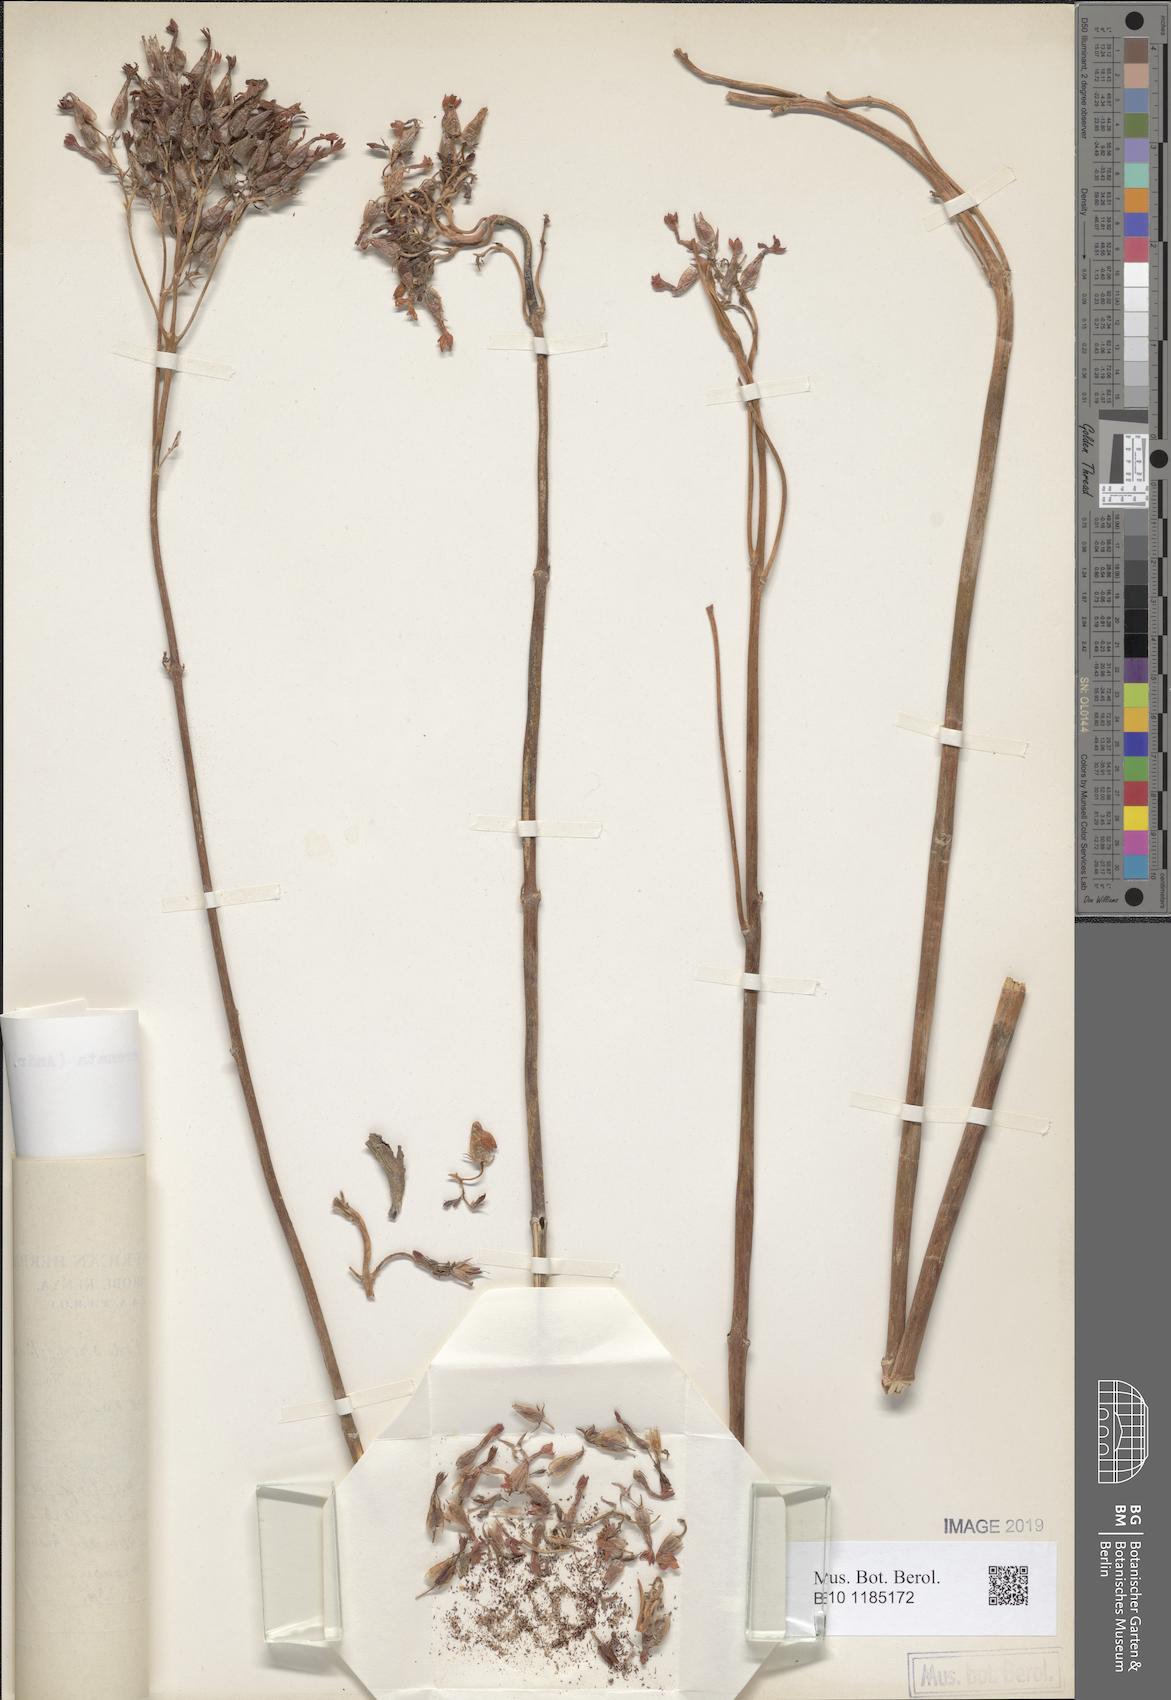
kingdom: Plantae
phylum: Tracheophyta
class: Magnoliopsida
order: Saxifragales
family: Crassulaceae
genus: Kalanchoe
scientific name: Kalanchoe crenata
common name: Neverdie
